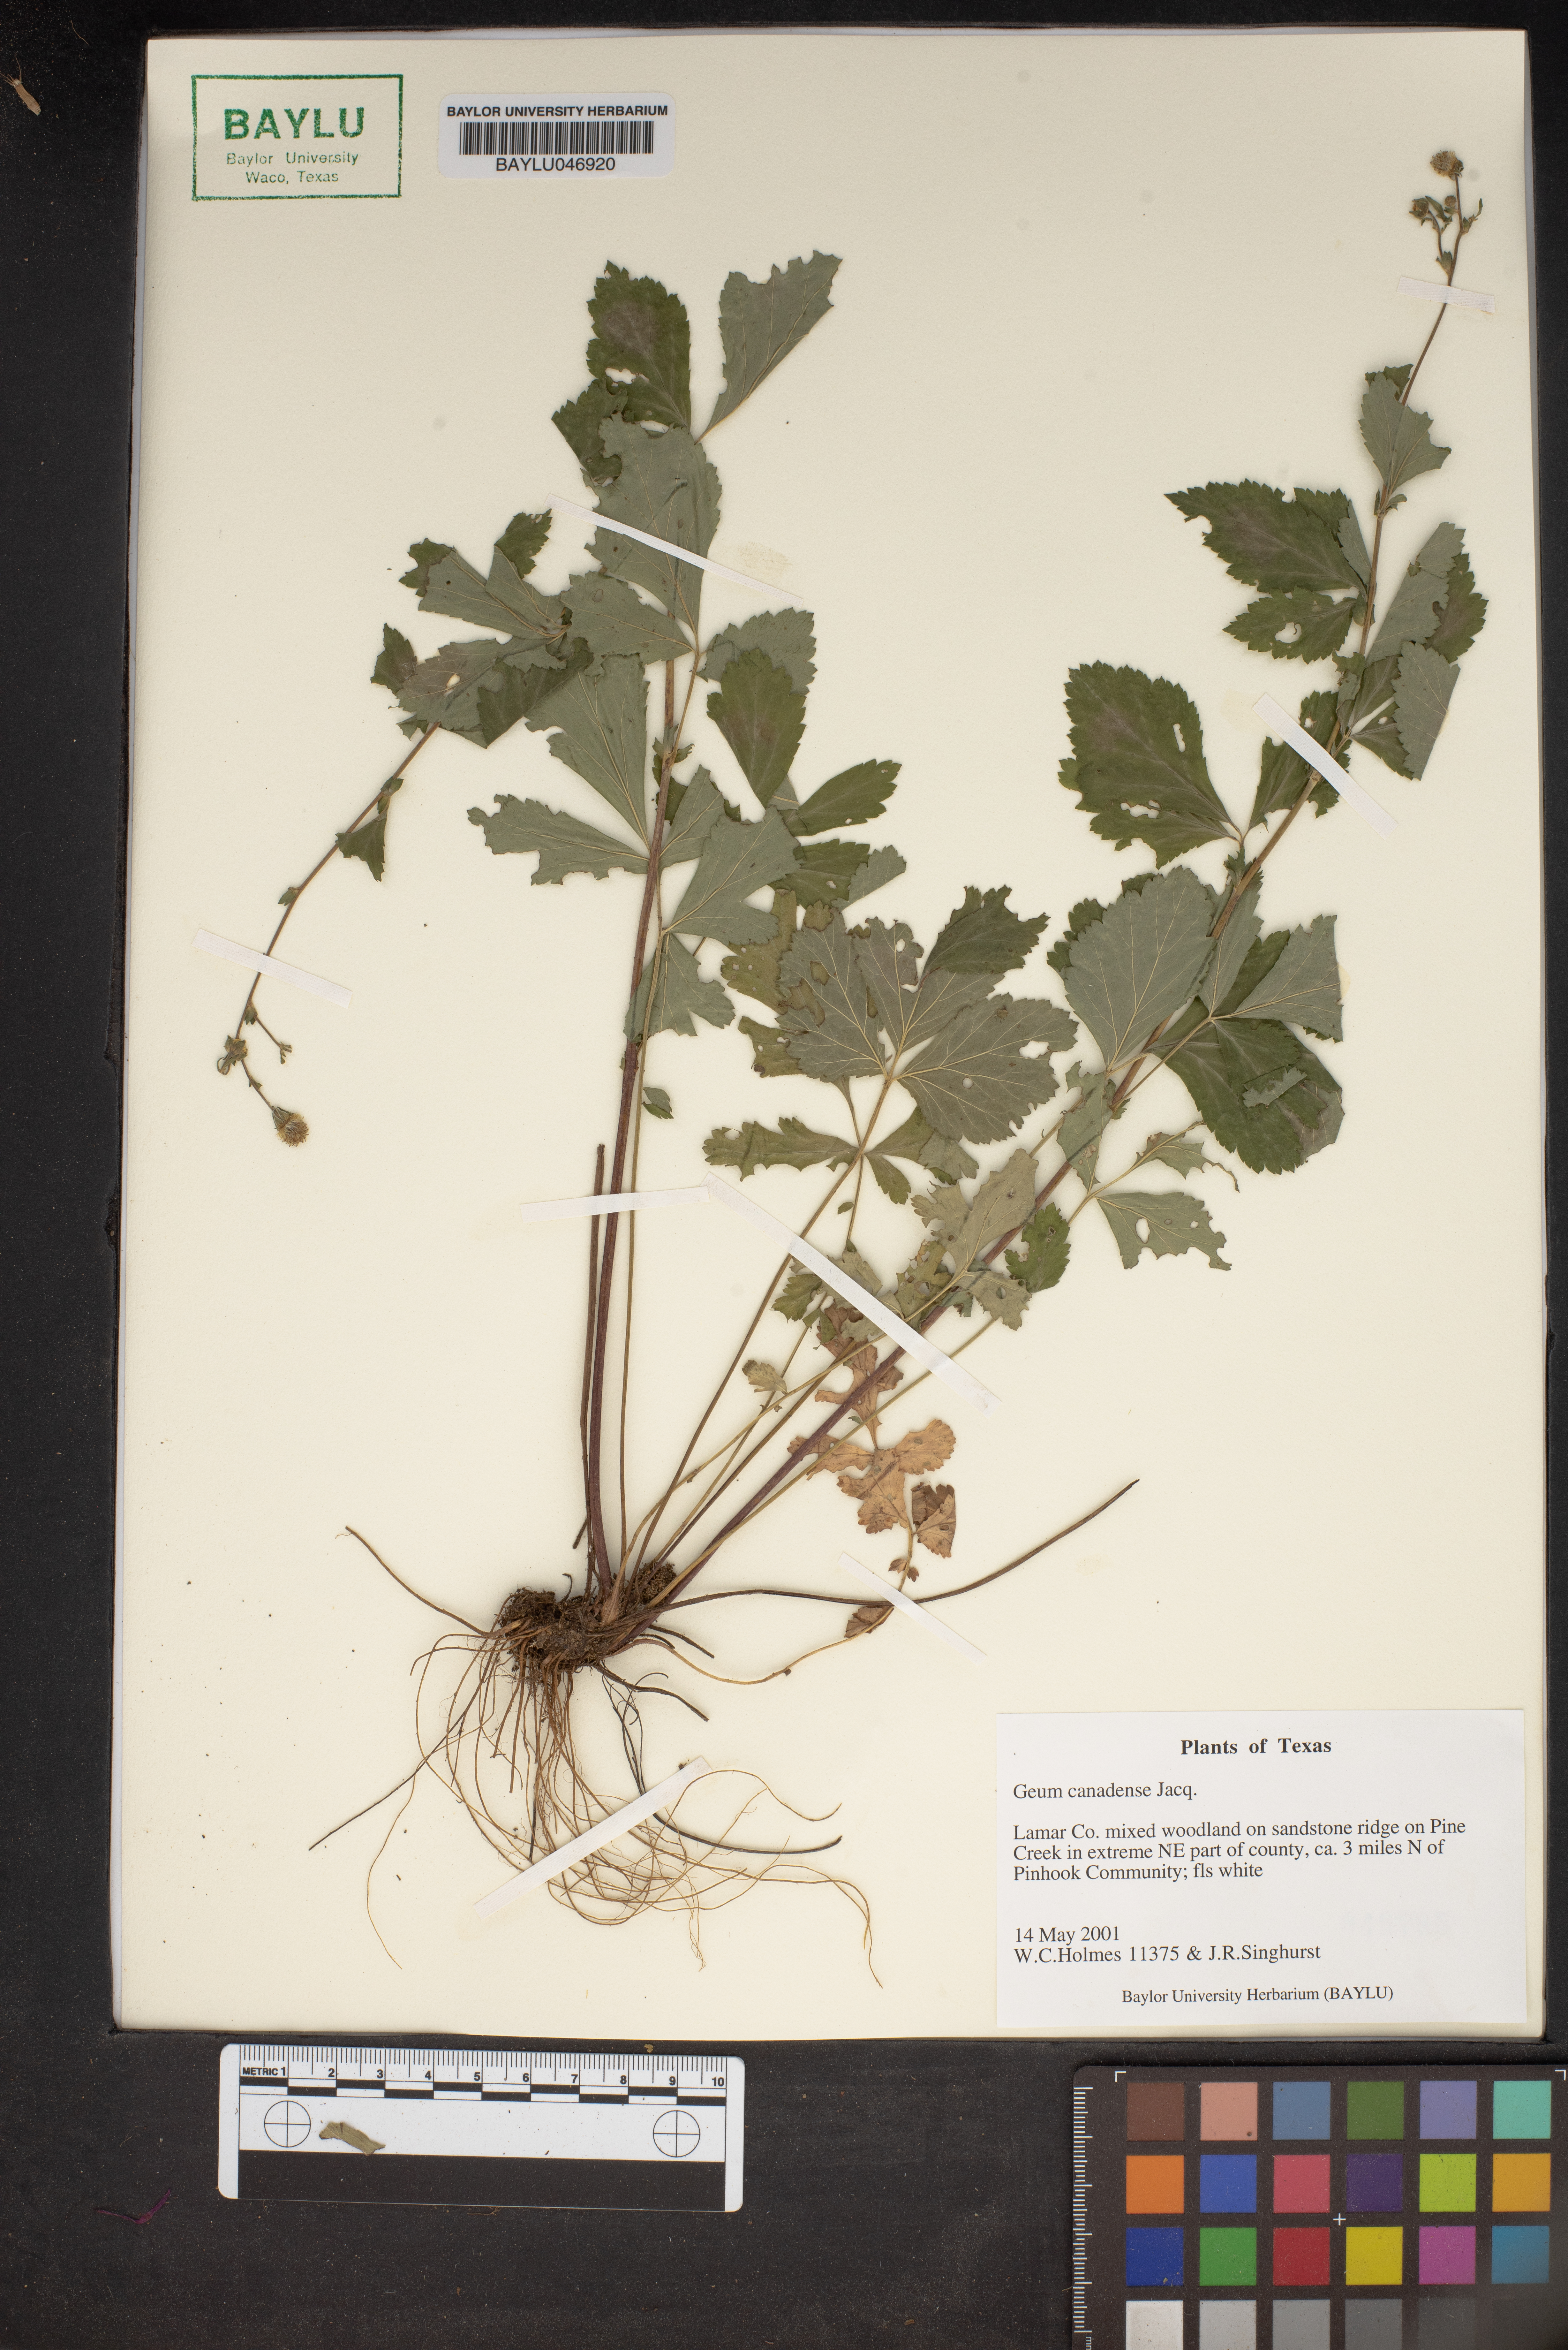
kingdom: Plantae
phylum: Tracheophyta
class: Magnoliopsida
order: Rosales
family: Rosaceae
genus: Geum
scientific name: Geum canadense
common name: White avens
